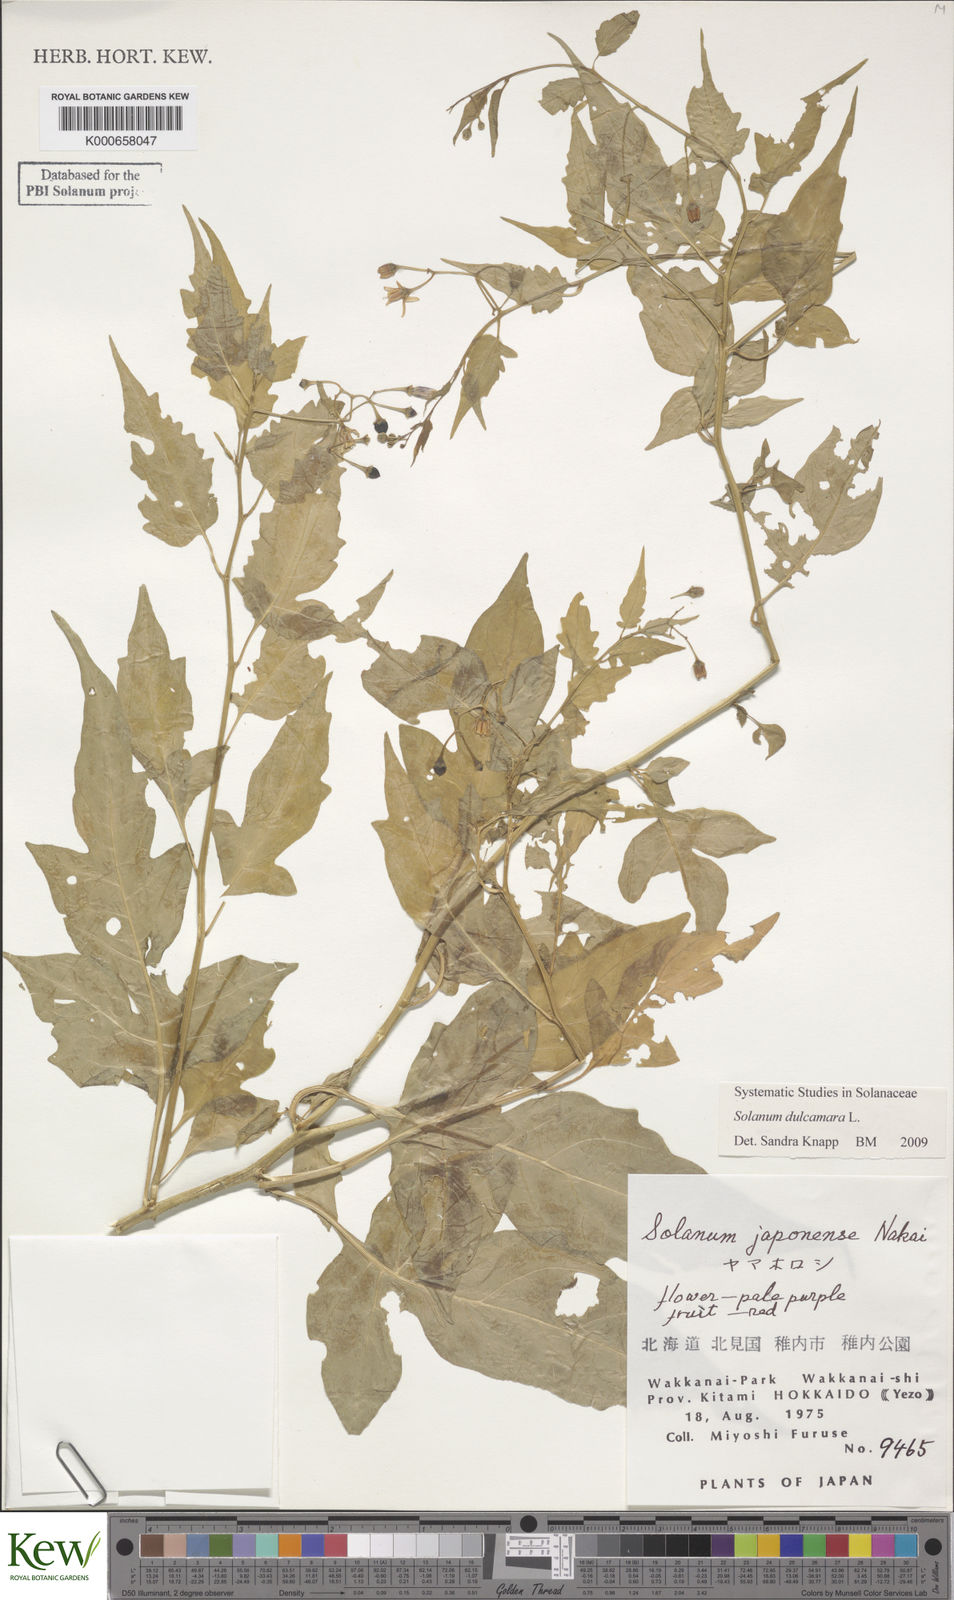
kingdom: Plantae
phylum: Tracheophyta
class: Magnoliopsida
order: Solanales
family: Solanaceae
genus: Solanum
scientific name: Solanum dulcamara
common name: Climbing nightshade
